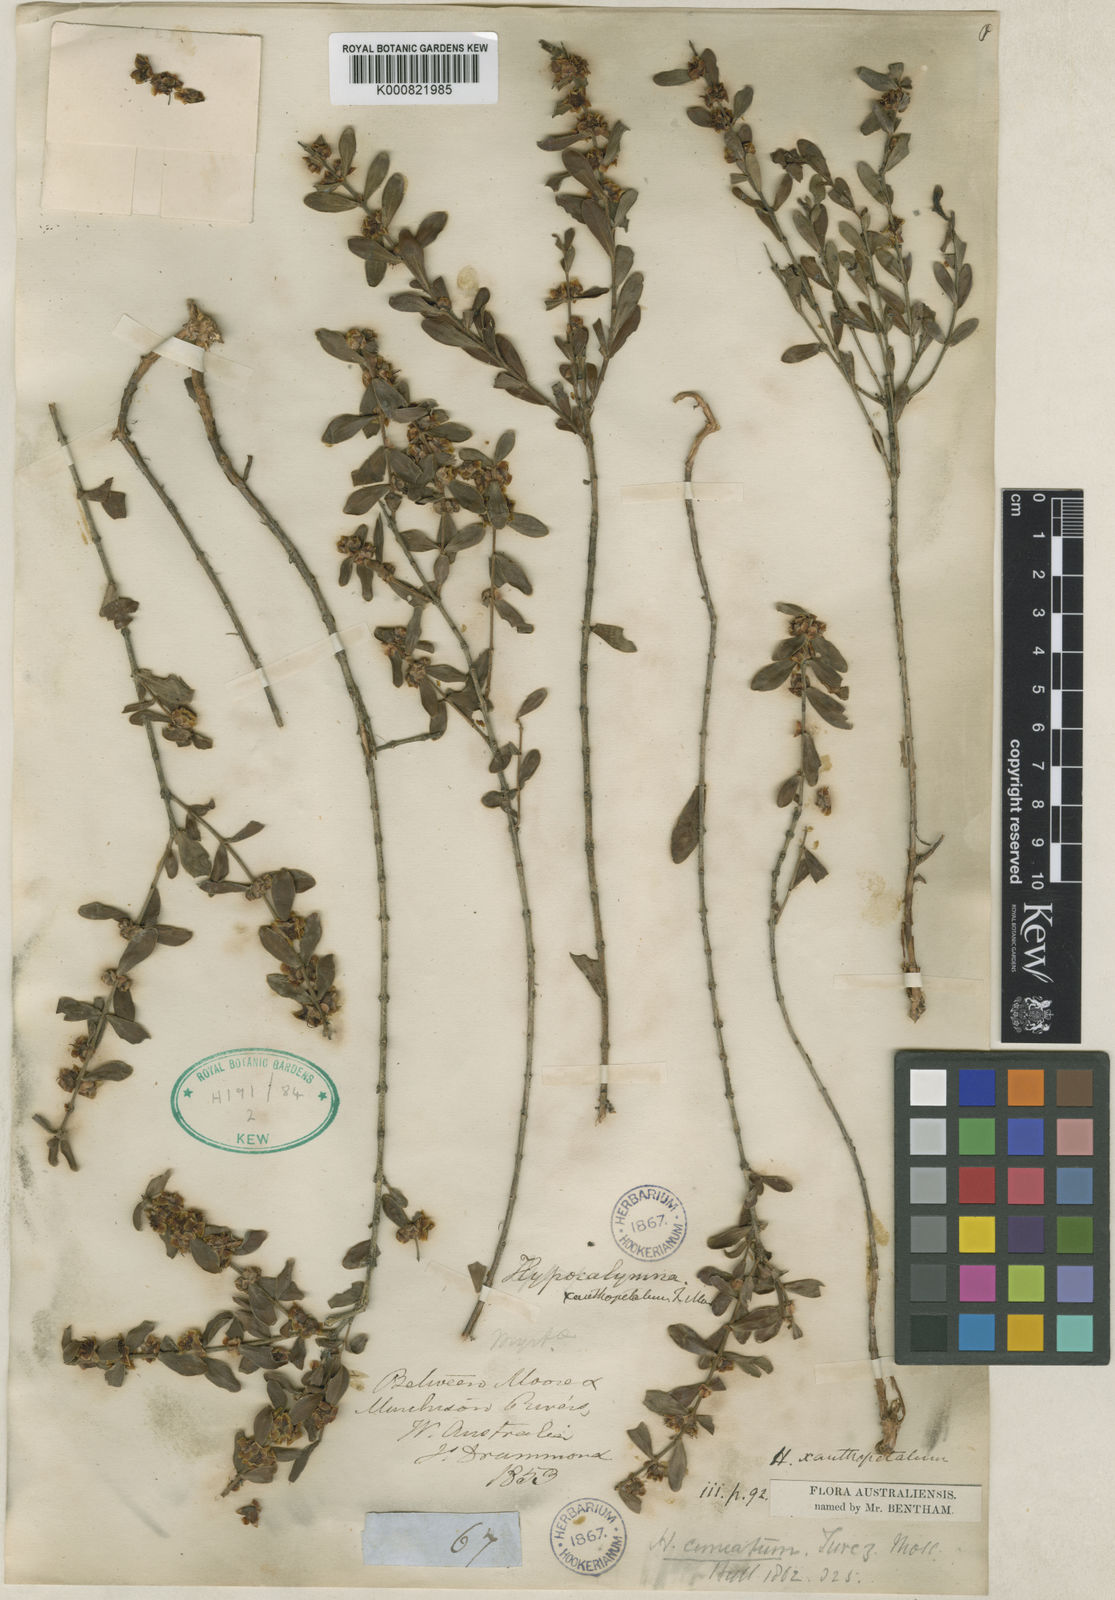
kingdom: Plantae
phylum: Tracheophyta
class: Magnoliopsida
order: Myrtales
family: Myrtaceae
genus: Hypocalymma
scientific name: Hypocalymma xanthopetalum
